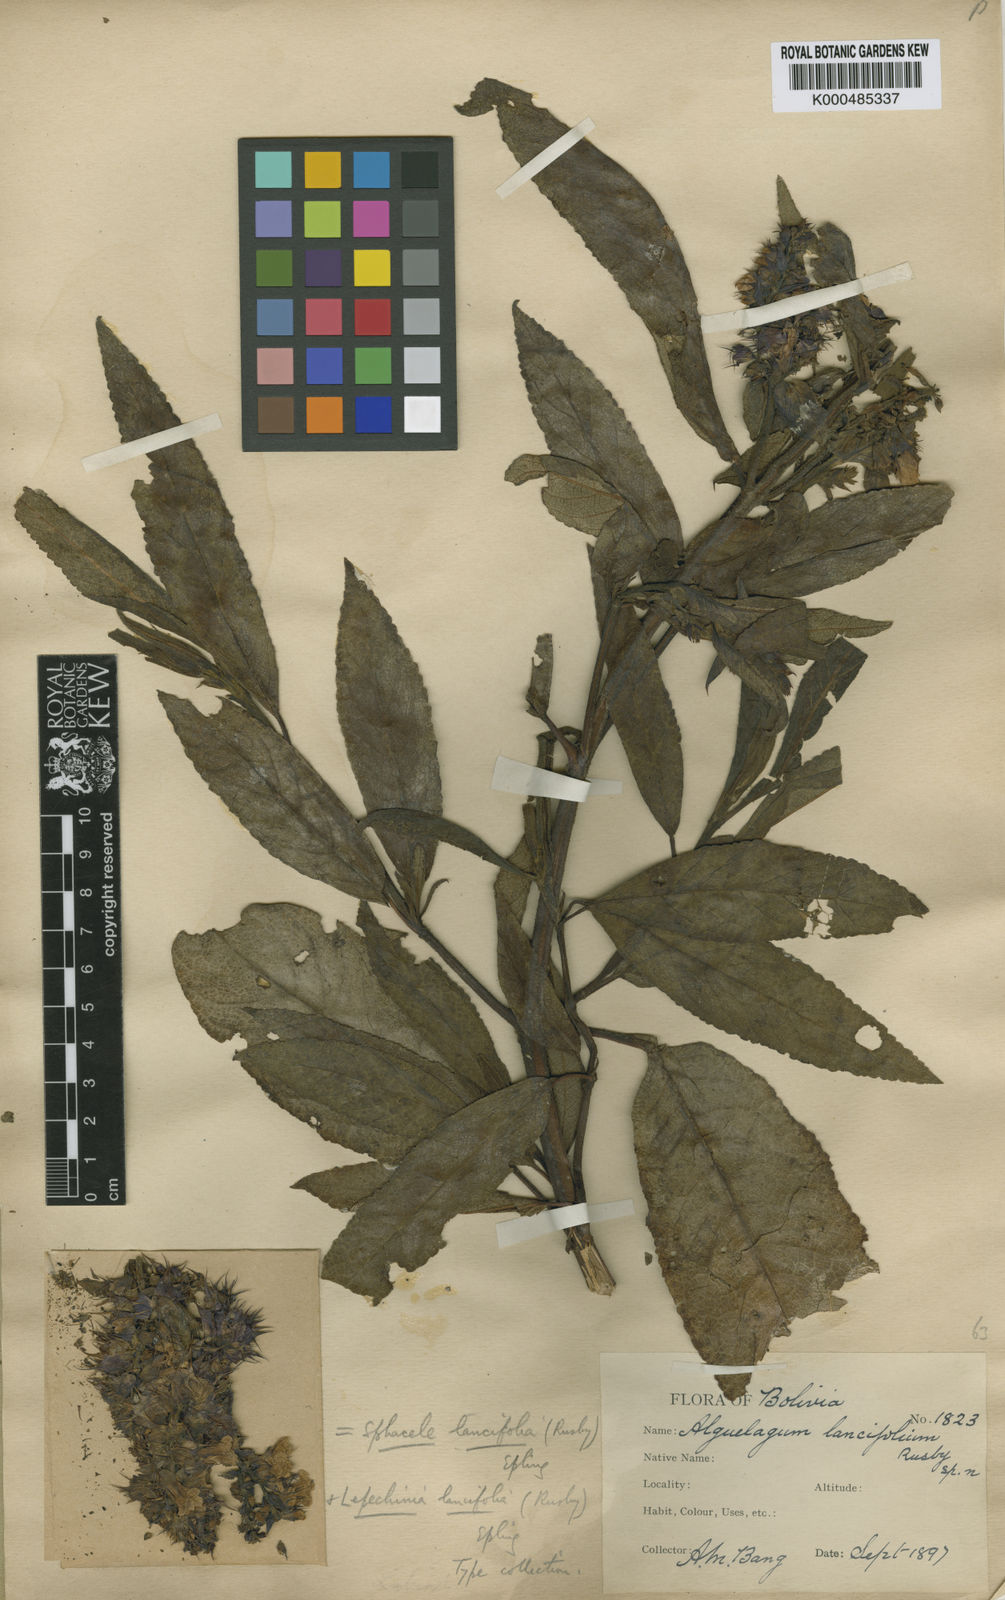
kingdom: Plantae
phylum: Tracheophyta
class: Magnoliopsida
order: Lamiales
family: Lamiaceae
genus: Lepechinia
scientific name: Lepechinia lancifolia
